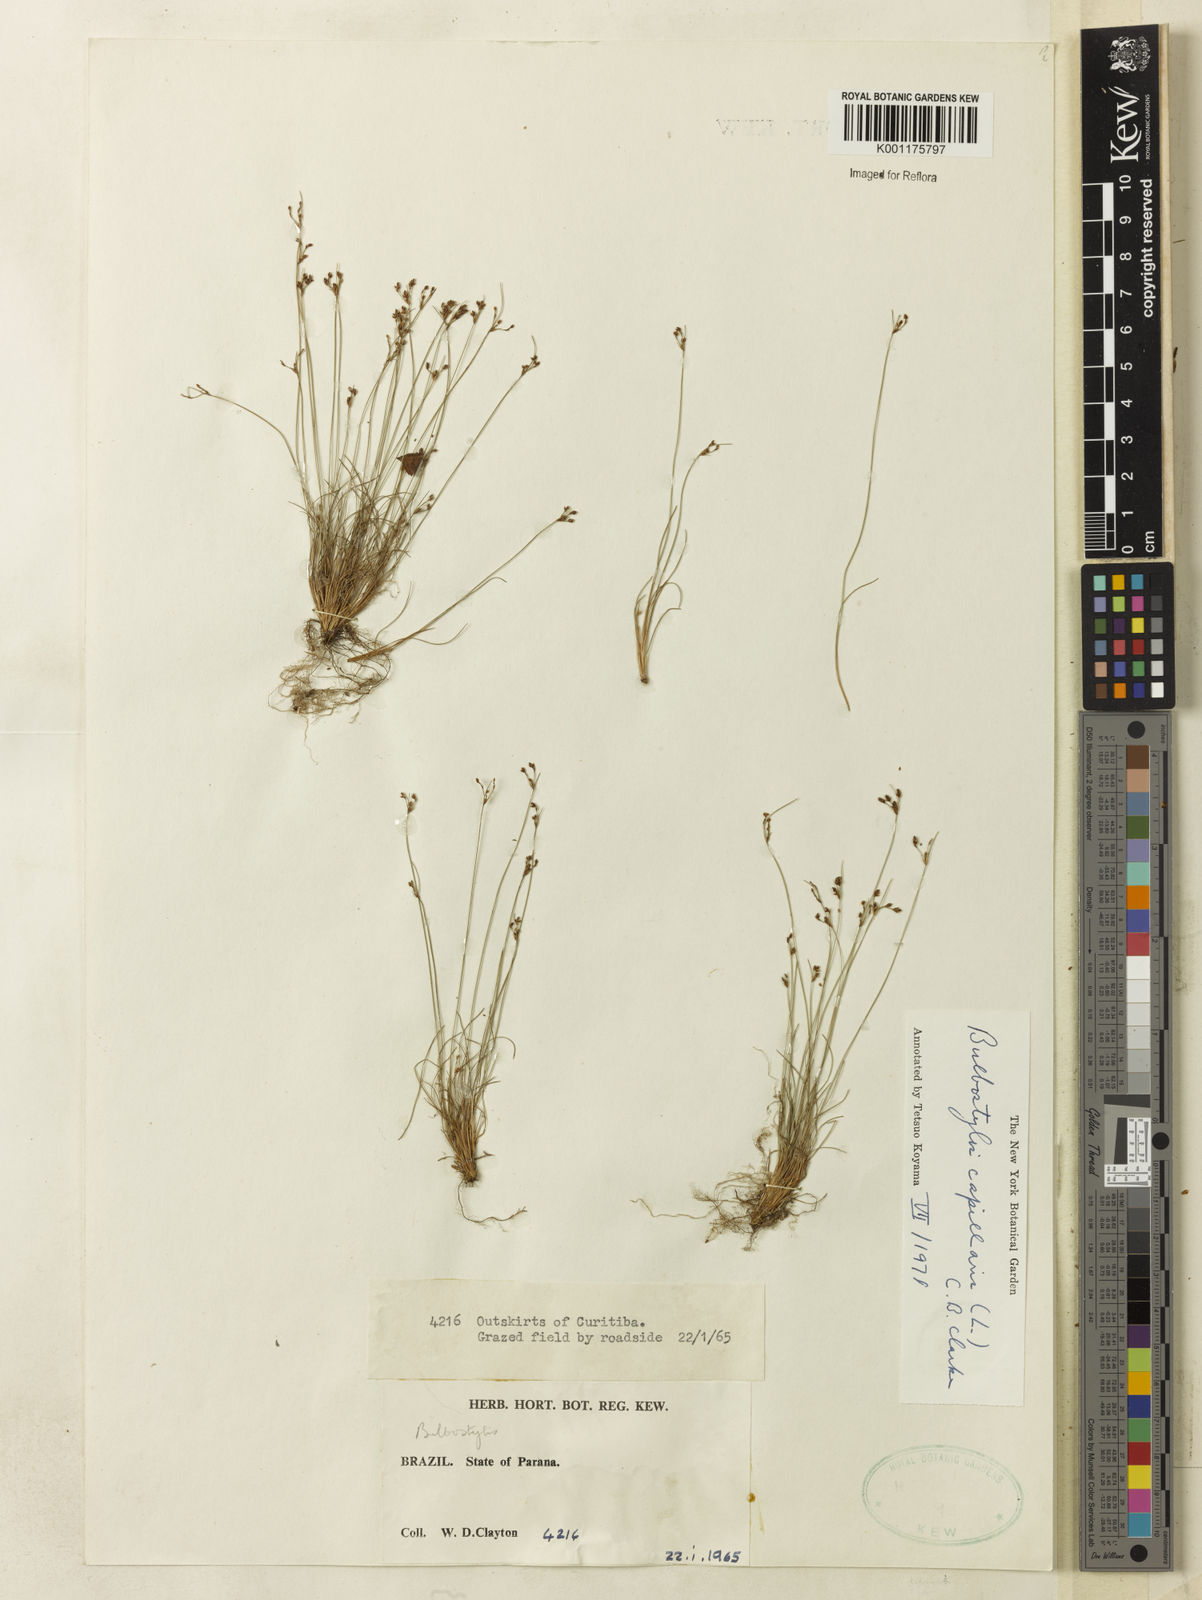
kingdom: Plantae
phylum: Tracheophyta
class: Liliopsida
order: Poales
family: Cyperaceae
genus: Bulbostylis
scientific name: Bulbostylis capillaris
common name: Densetuft hairsedge
